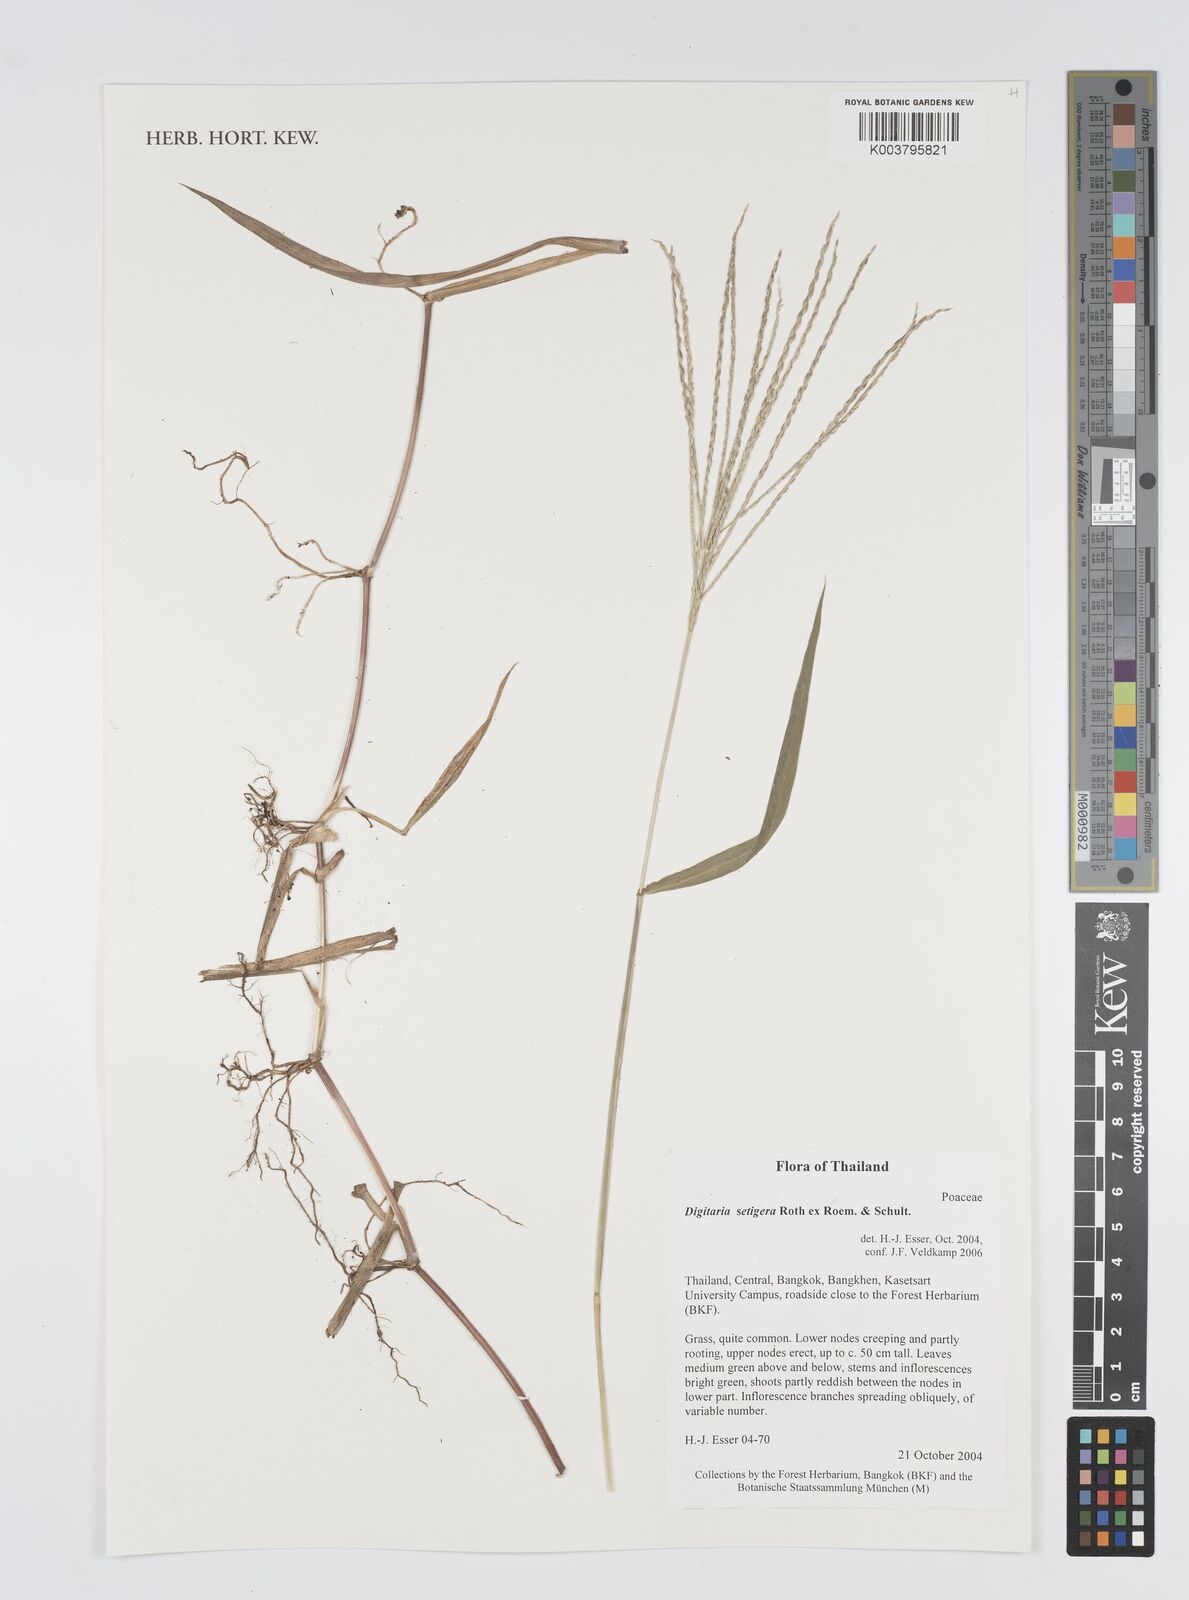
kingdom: Plantae
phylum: Tracheophyta
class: Liliopsida
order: Poales
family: Poaceae
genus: Digitaria
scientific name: Digitaria setifolia
